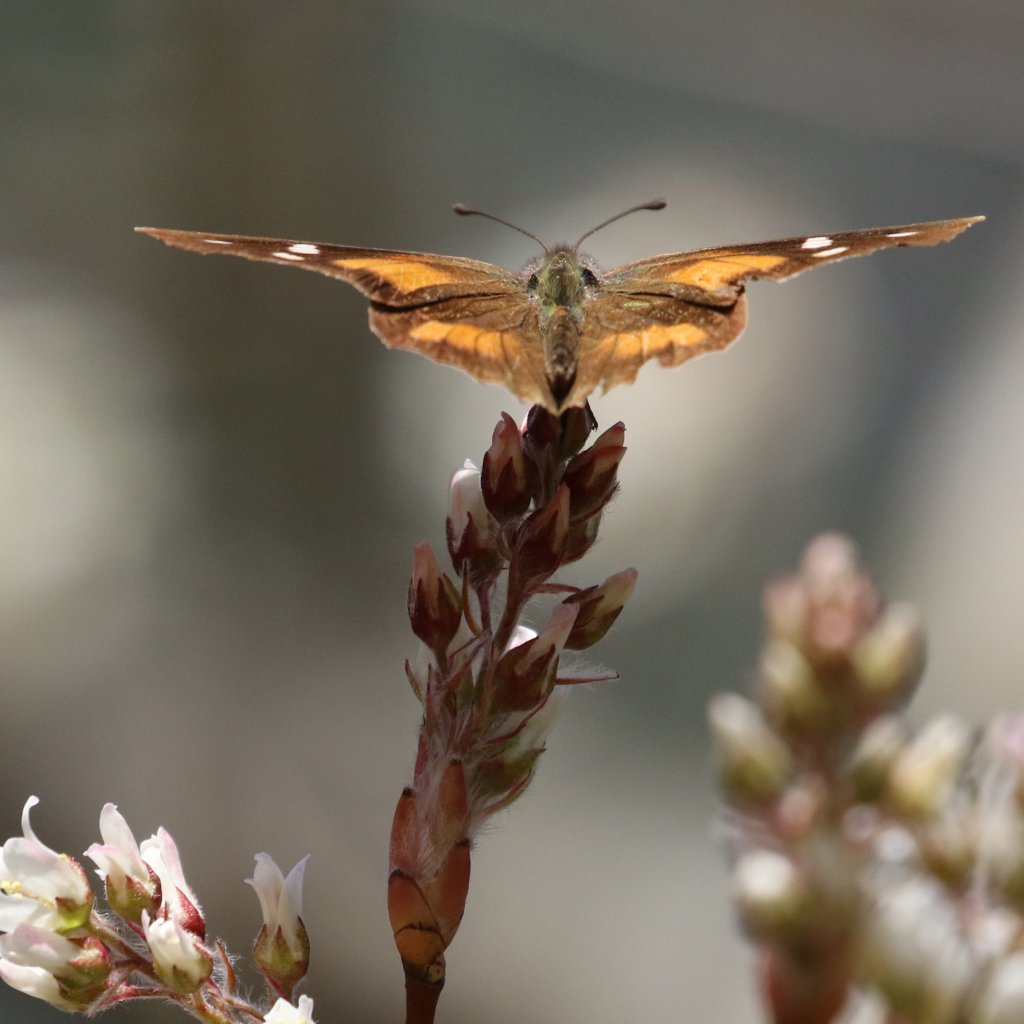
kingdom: Animalia
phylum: Arthropoda
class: Insecta
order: Lepidoptera
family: Nymphalidae
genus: Libytheana
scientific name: Libytheana carinenta
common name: American Snout
